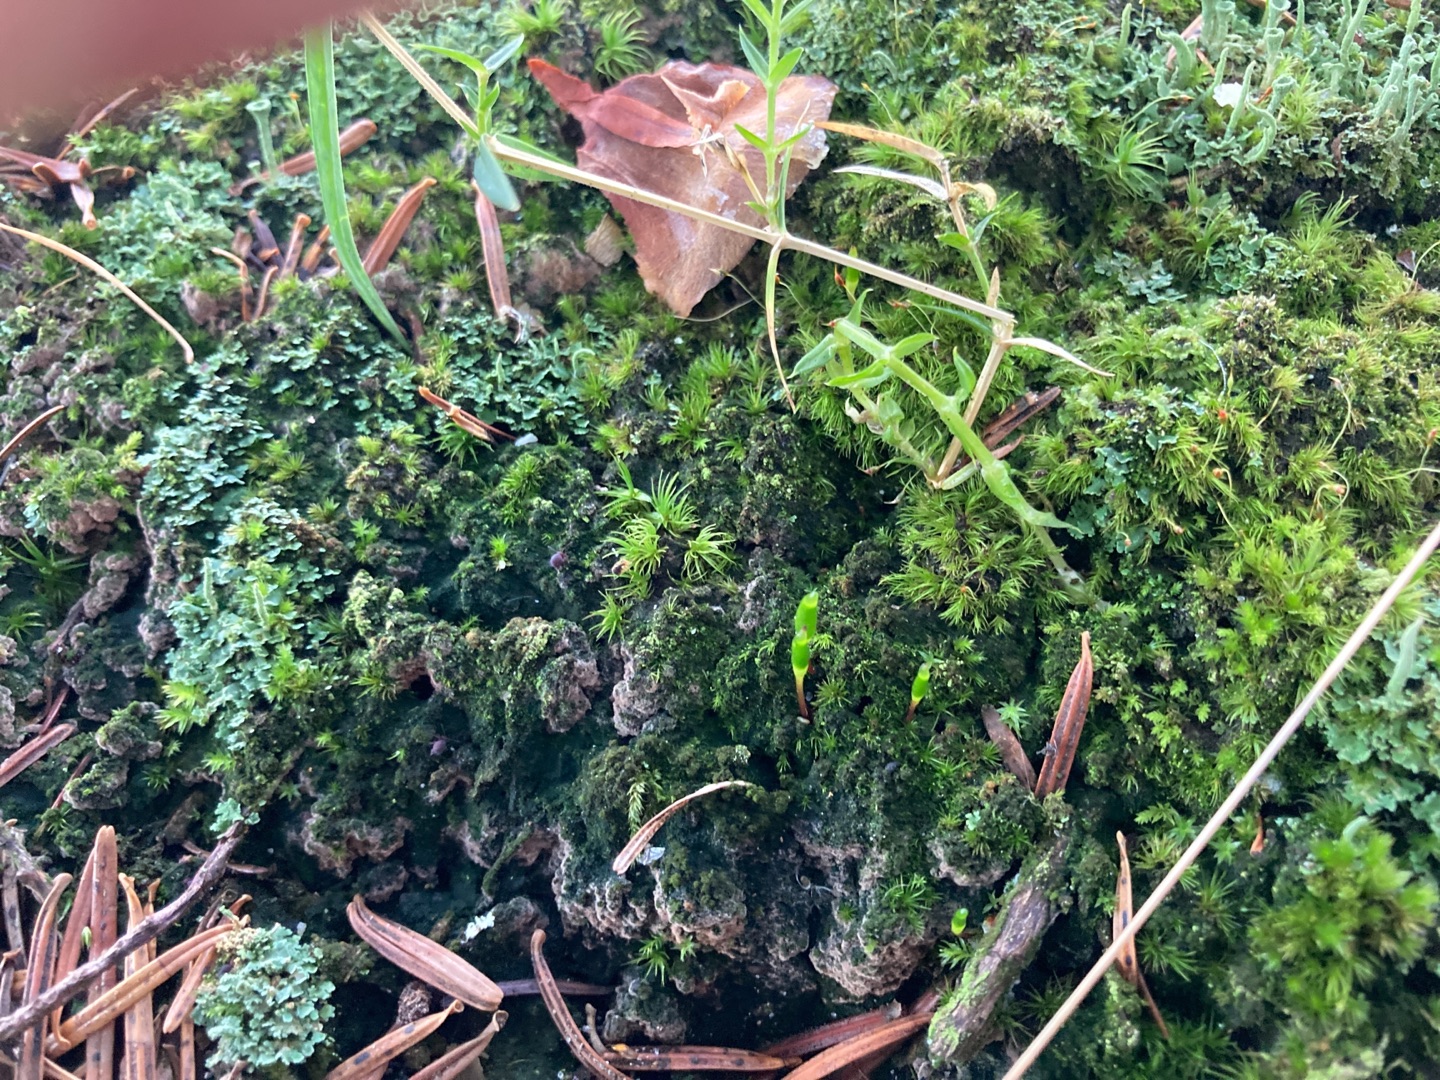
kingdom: Plantae
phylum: Bryophyta
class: Bryopsida
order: Buxbaumiales
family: Buxbaumiaceae
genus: Buxbaumia
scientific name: Buxbaumia viridis
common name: Grøn buxbaumia
